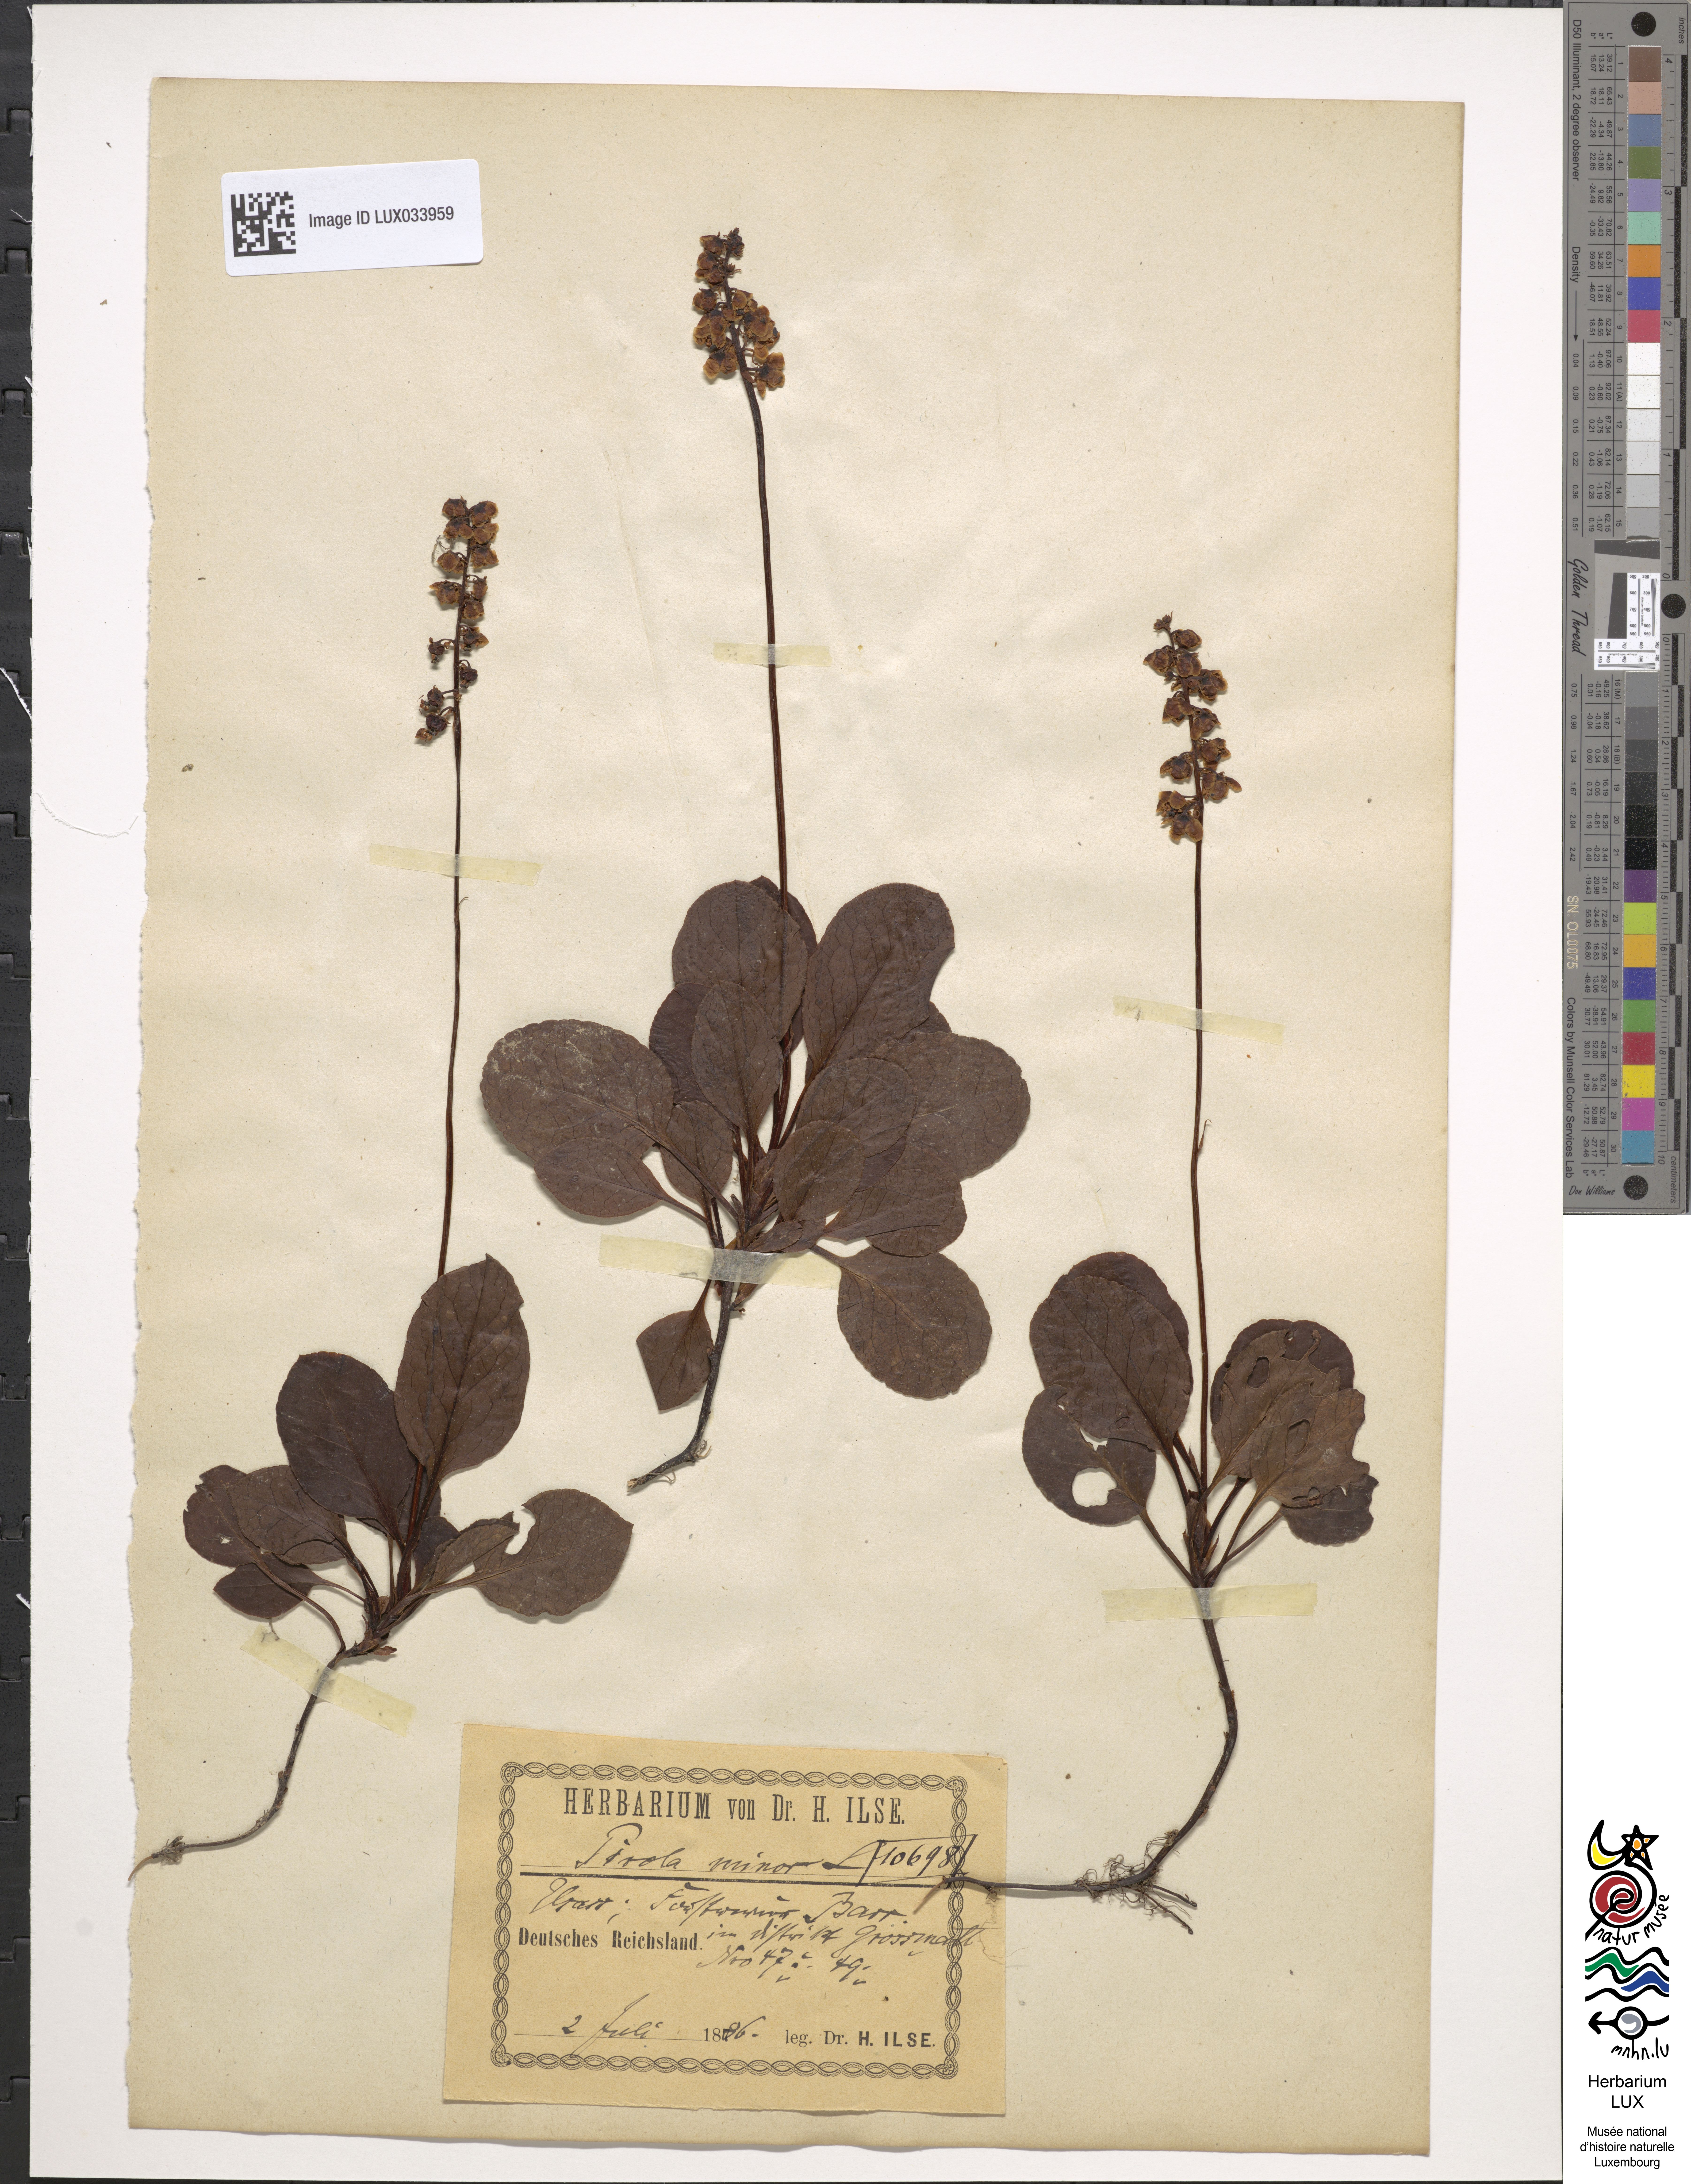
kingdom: Plantae
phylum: Tracheophyta
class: Magnoliopsida
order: Ericales
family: Ericaceae
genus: Pyrola
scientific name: Pyrola minor
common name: Common wintergreen
